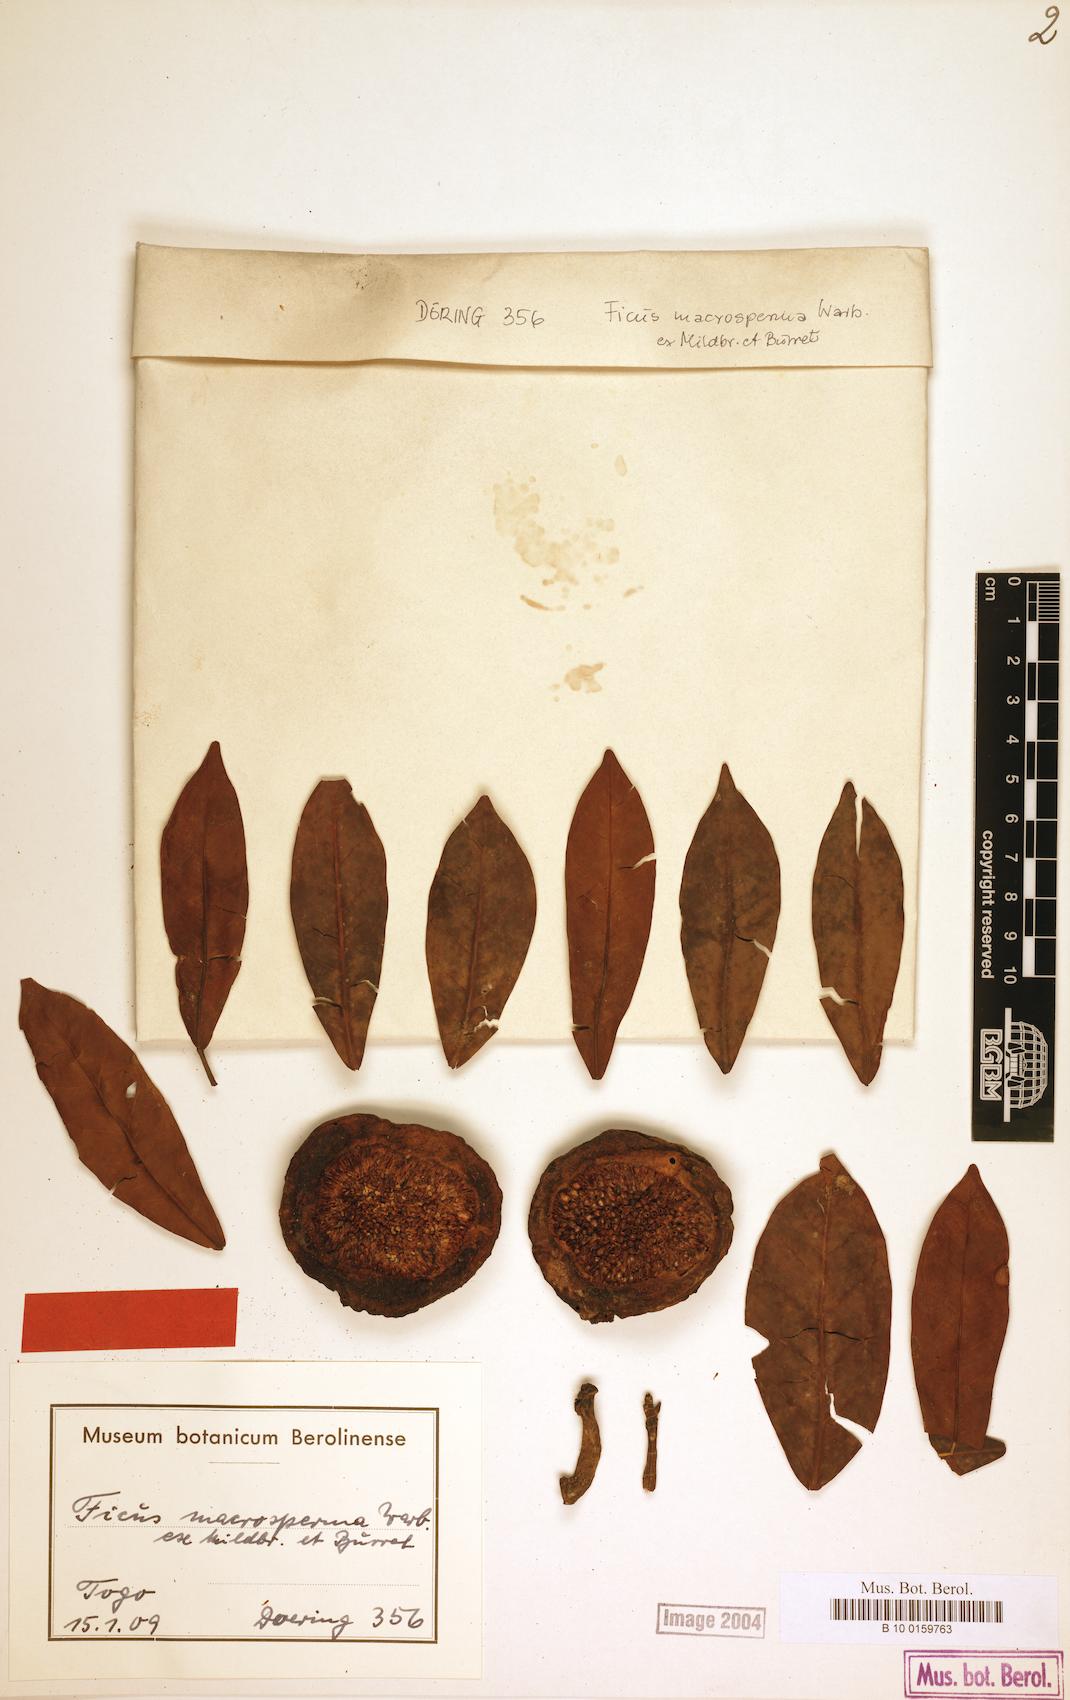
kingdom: Plantae
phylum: Tracheophyta
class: Magnoliopsida
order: Rosales
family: Moraceae
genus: Ficus
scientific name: Ficus sansibarica
